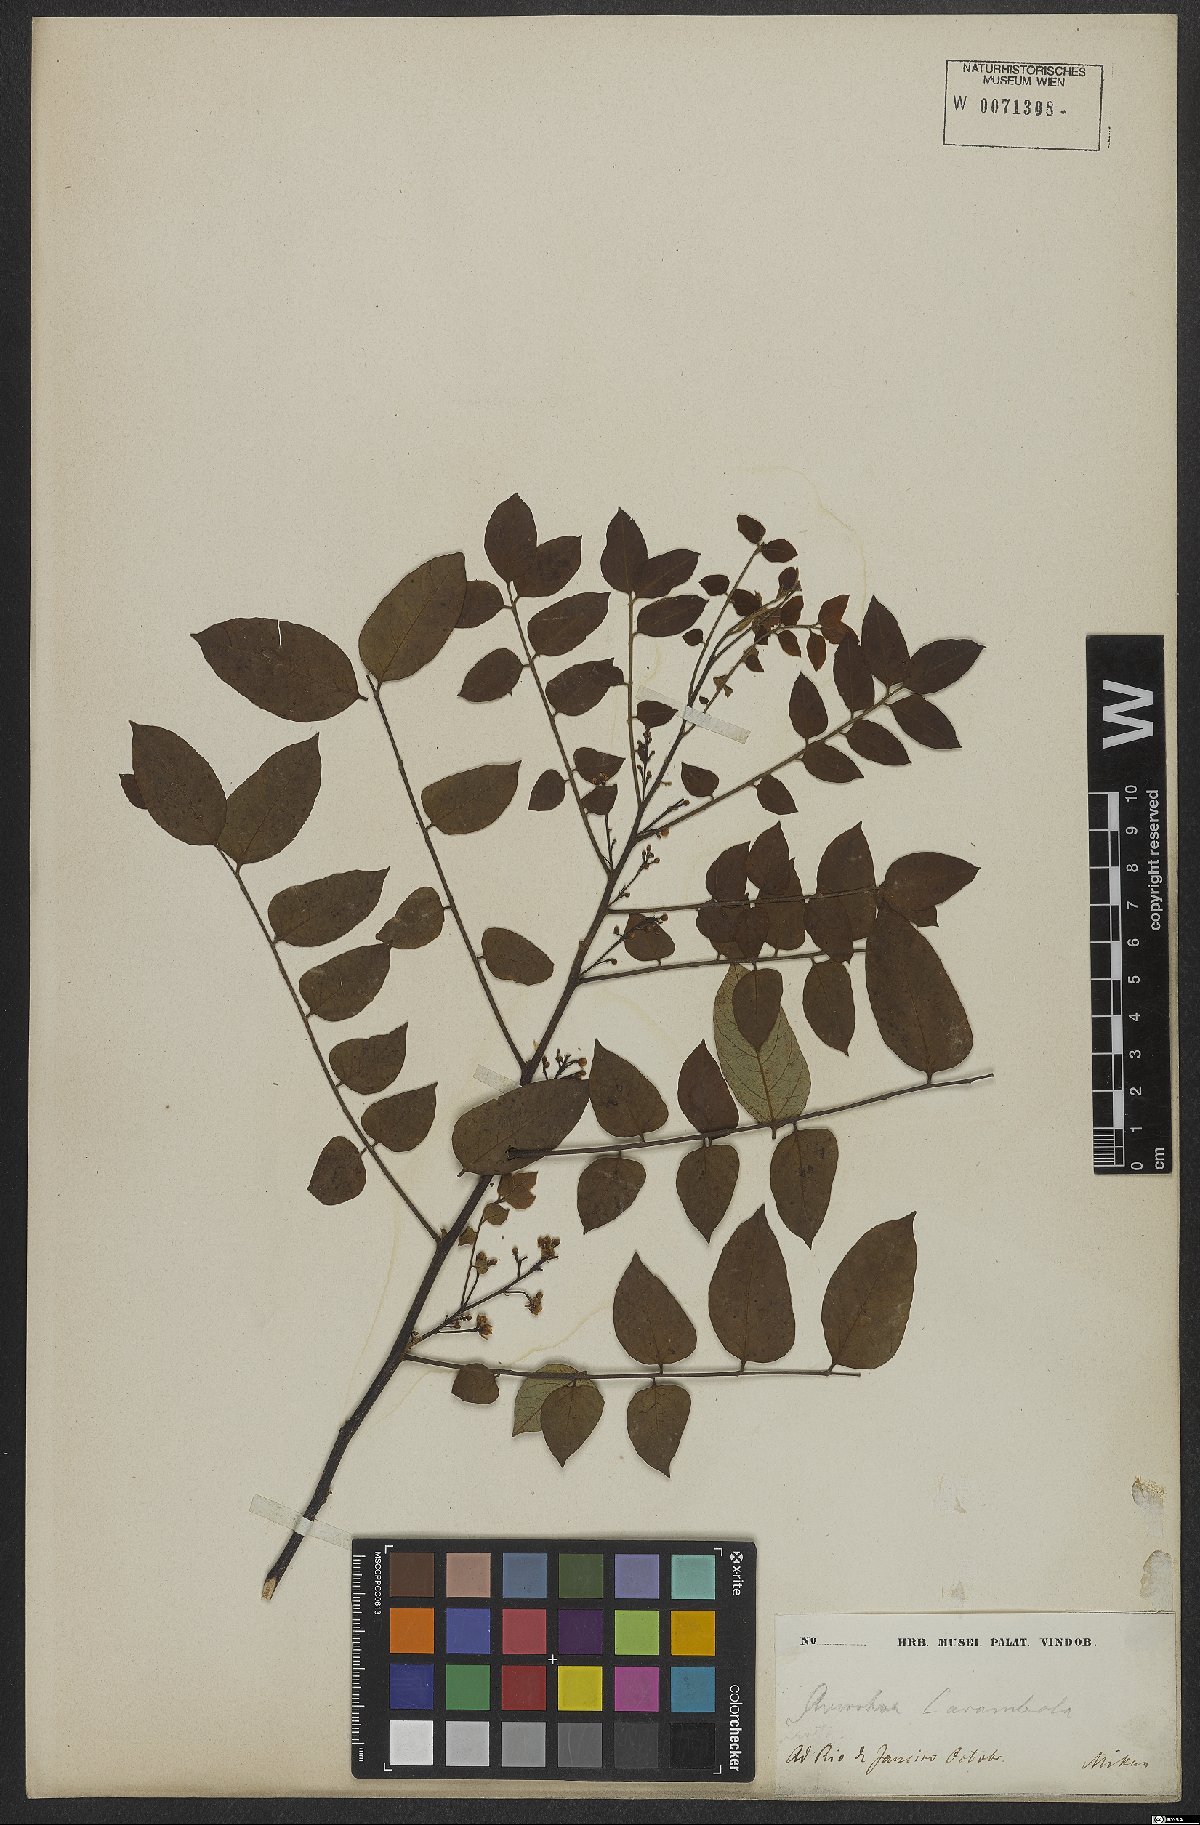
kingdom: Plantae
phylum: Tracheophyta
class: Magnoliopsida
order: Oxalidales
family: Oxalidaceae
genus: Averrhoa
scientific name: Averrhoa carambola
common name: Blimbing
